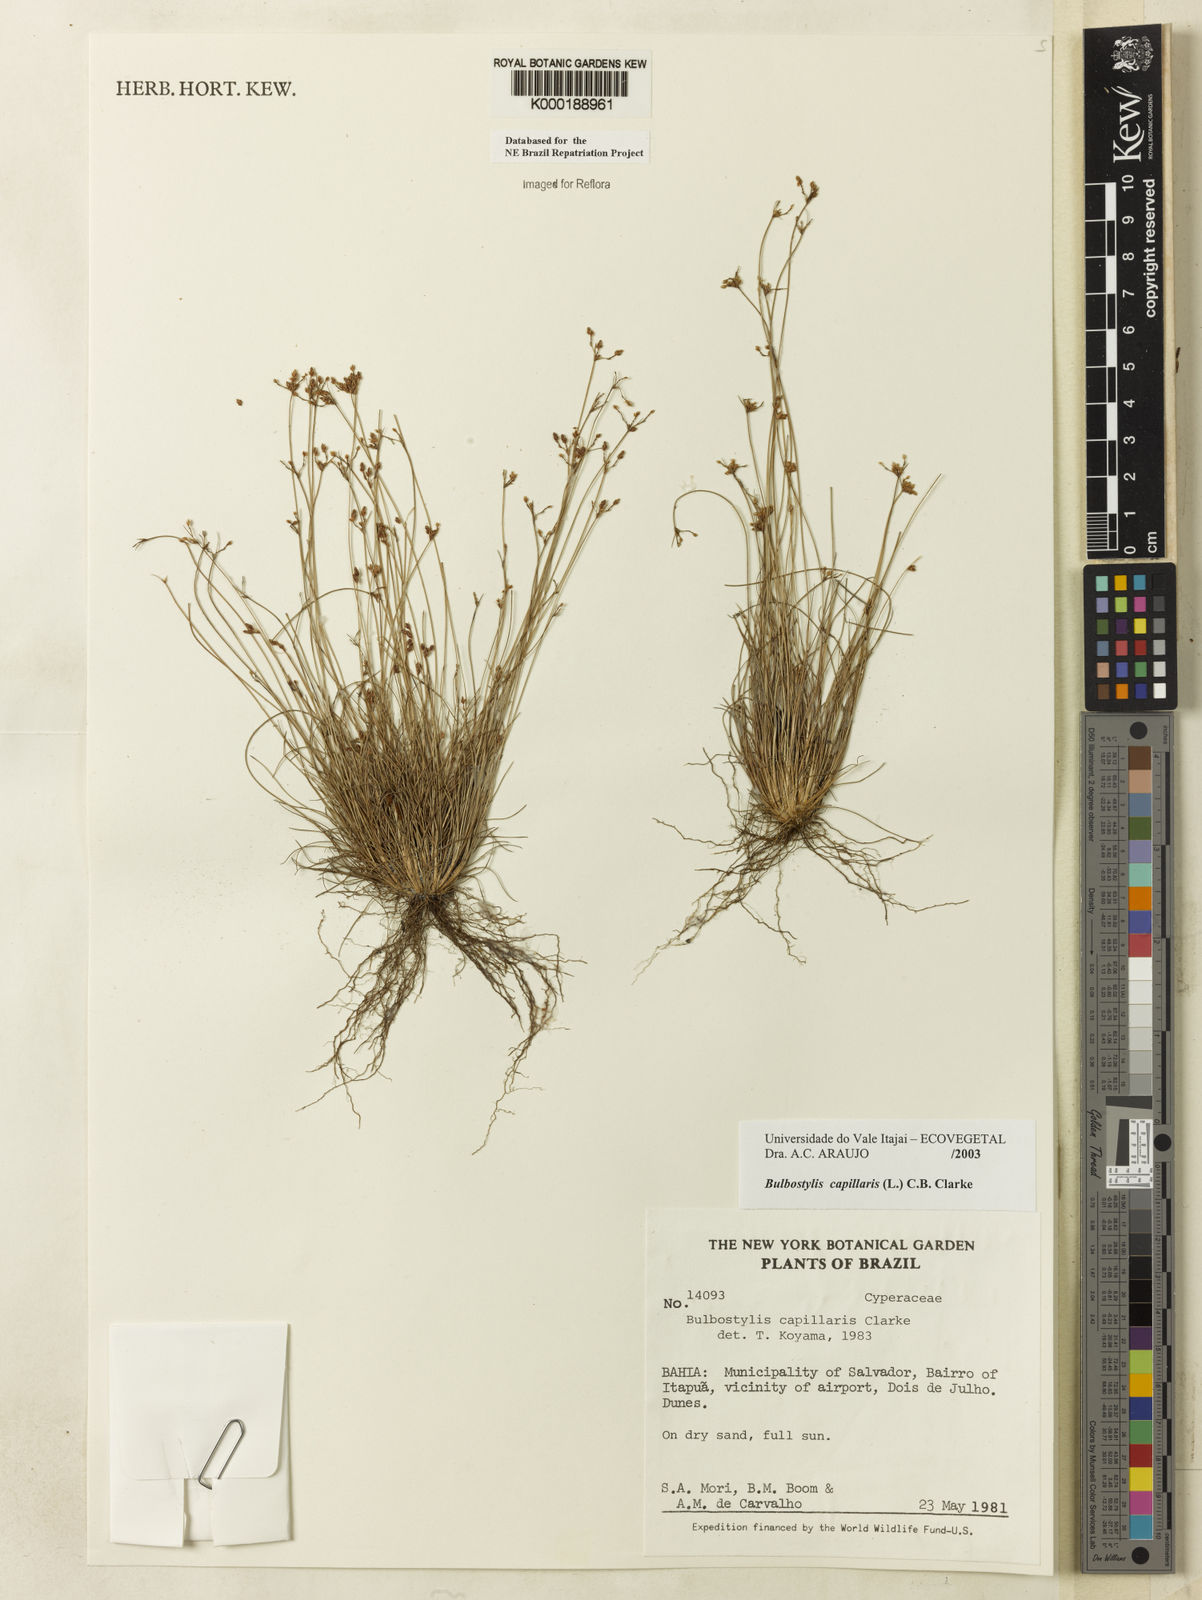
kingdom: Plantae
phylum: Tracheophyta
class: Liliopsida
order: Poales
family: Cyperaceae
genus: Bulbostylis
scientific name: Bulbostylis capillaris
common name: Densetuft hairsedge
